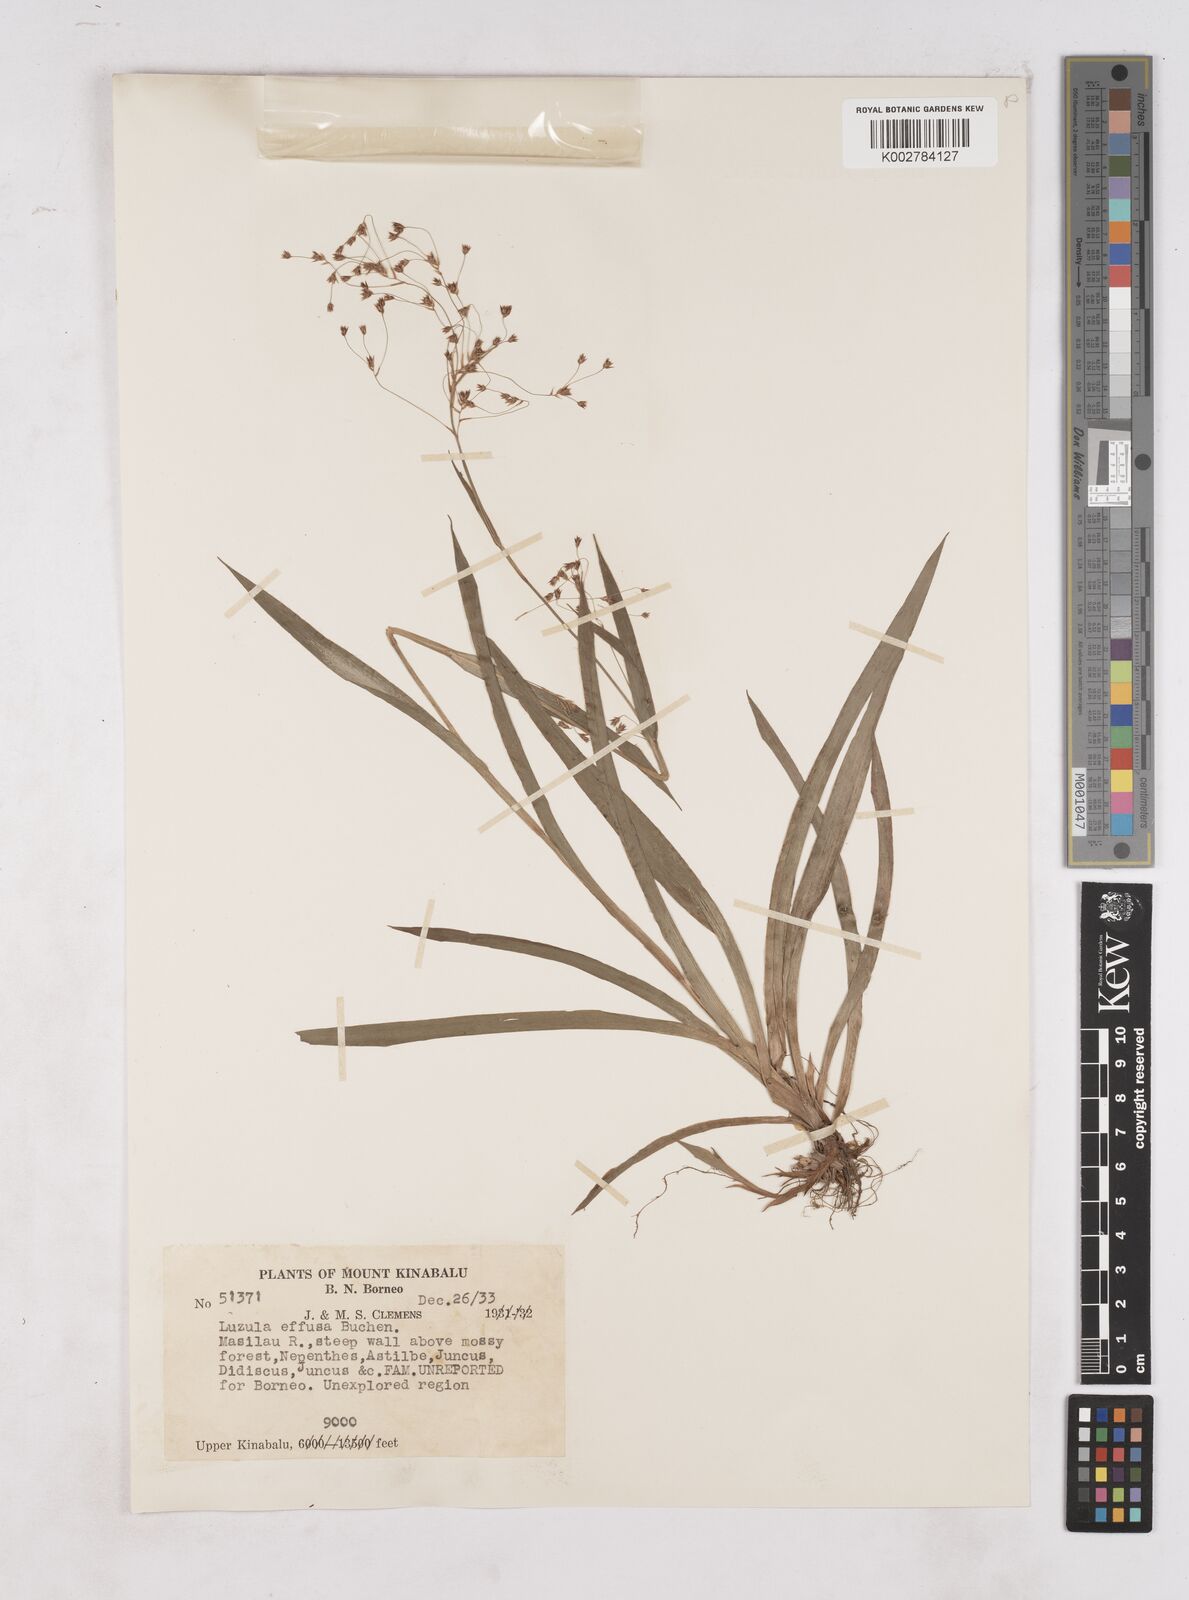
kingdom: Plantae
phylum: Tracheophyta
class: Liliopsida
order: Poales
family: Juncaceae
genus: Luzula
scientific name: Luzula effusa
